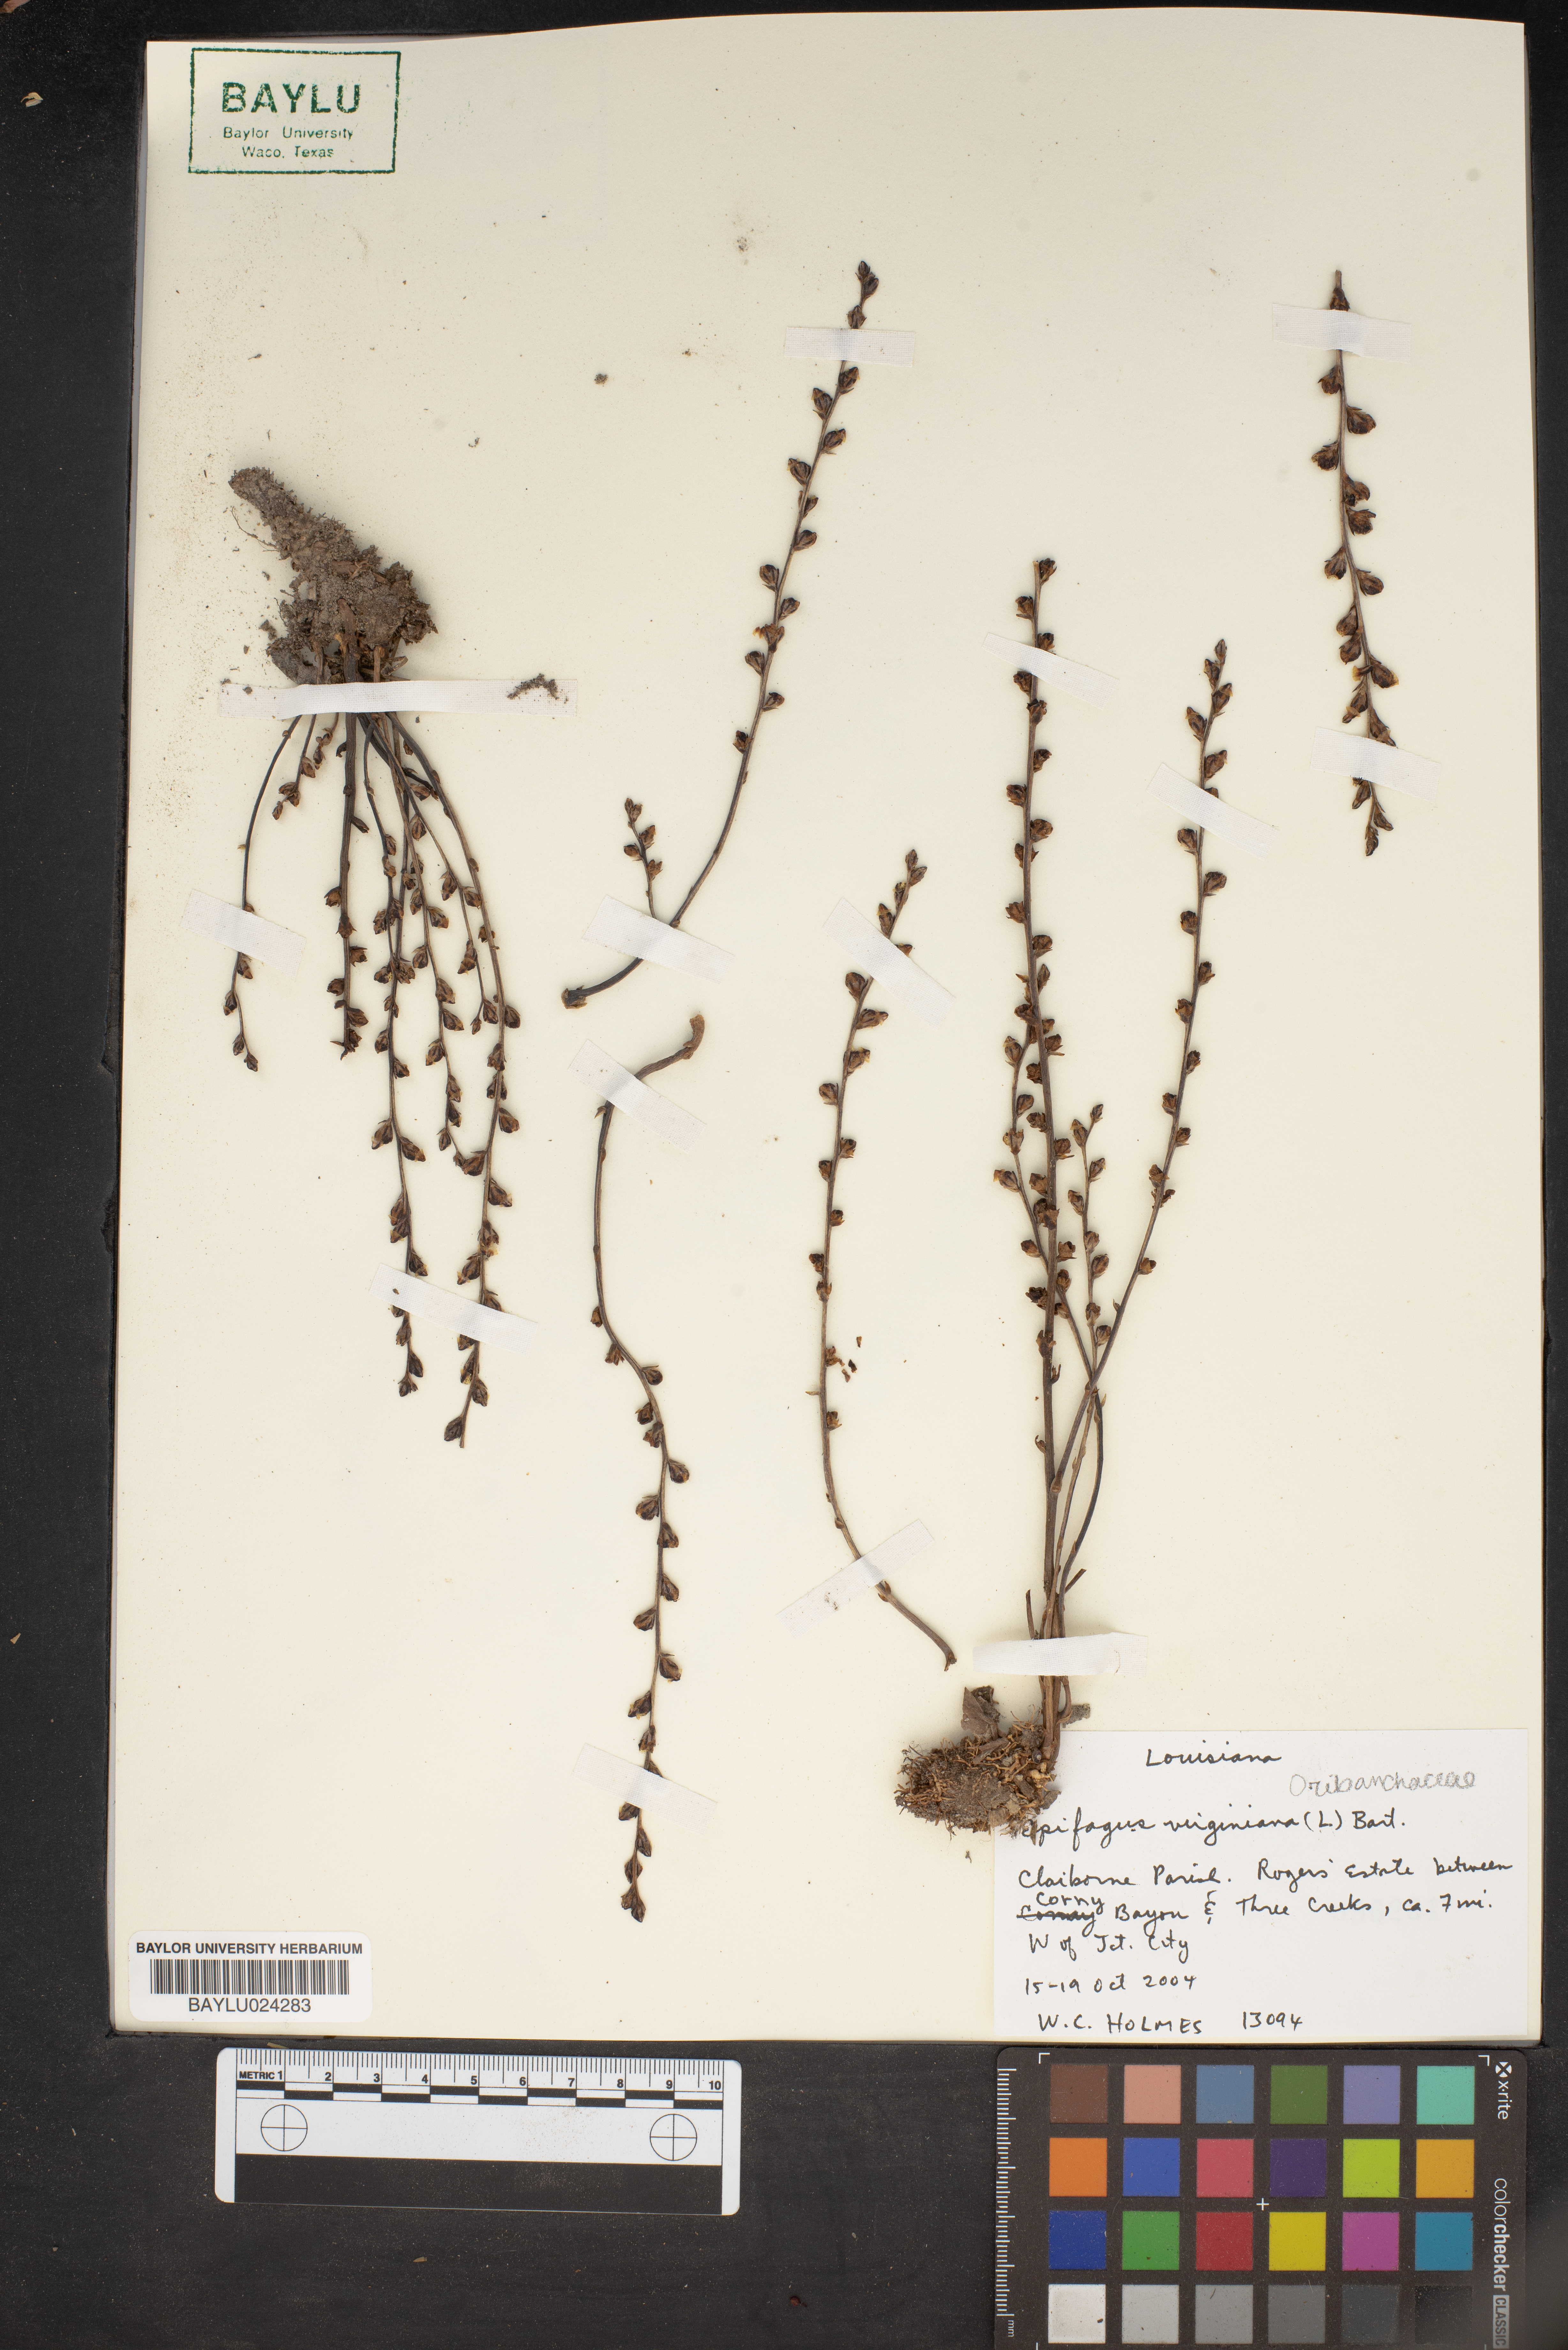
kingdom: Plantae
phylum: Tracheophyta
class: Magnoliopsida
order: Lamiales
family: Orobanchaceae
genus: Epifagus
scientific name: Epifagus virginiana
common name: Beechdrops
